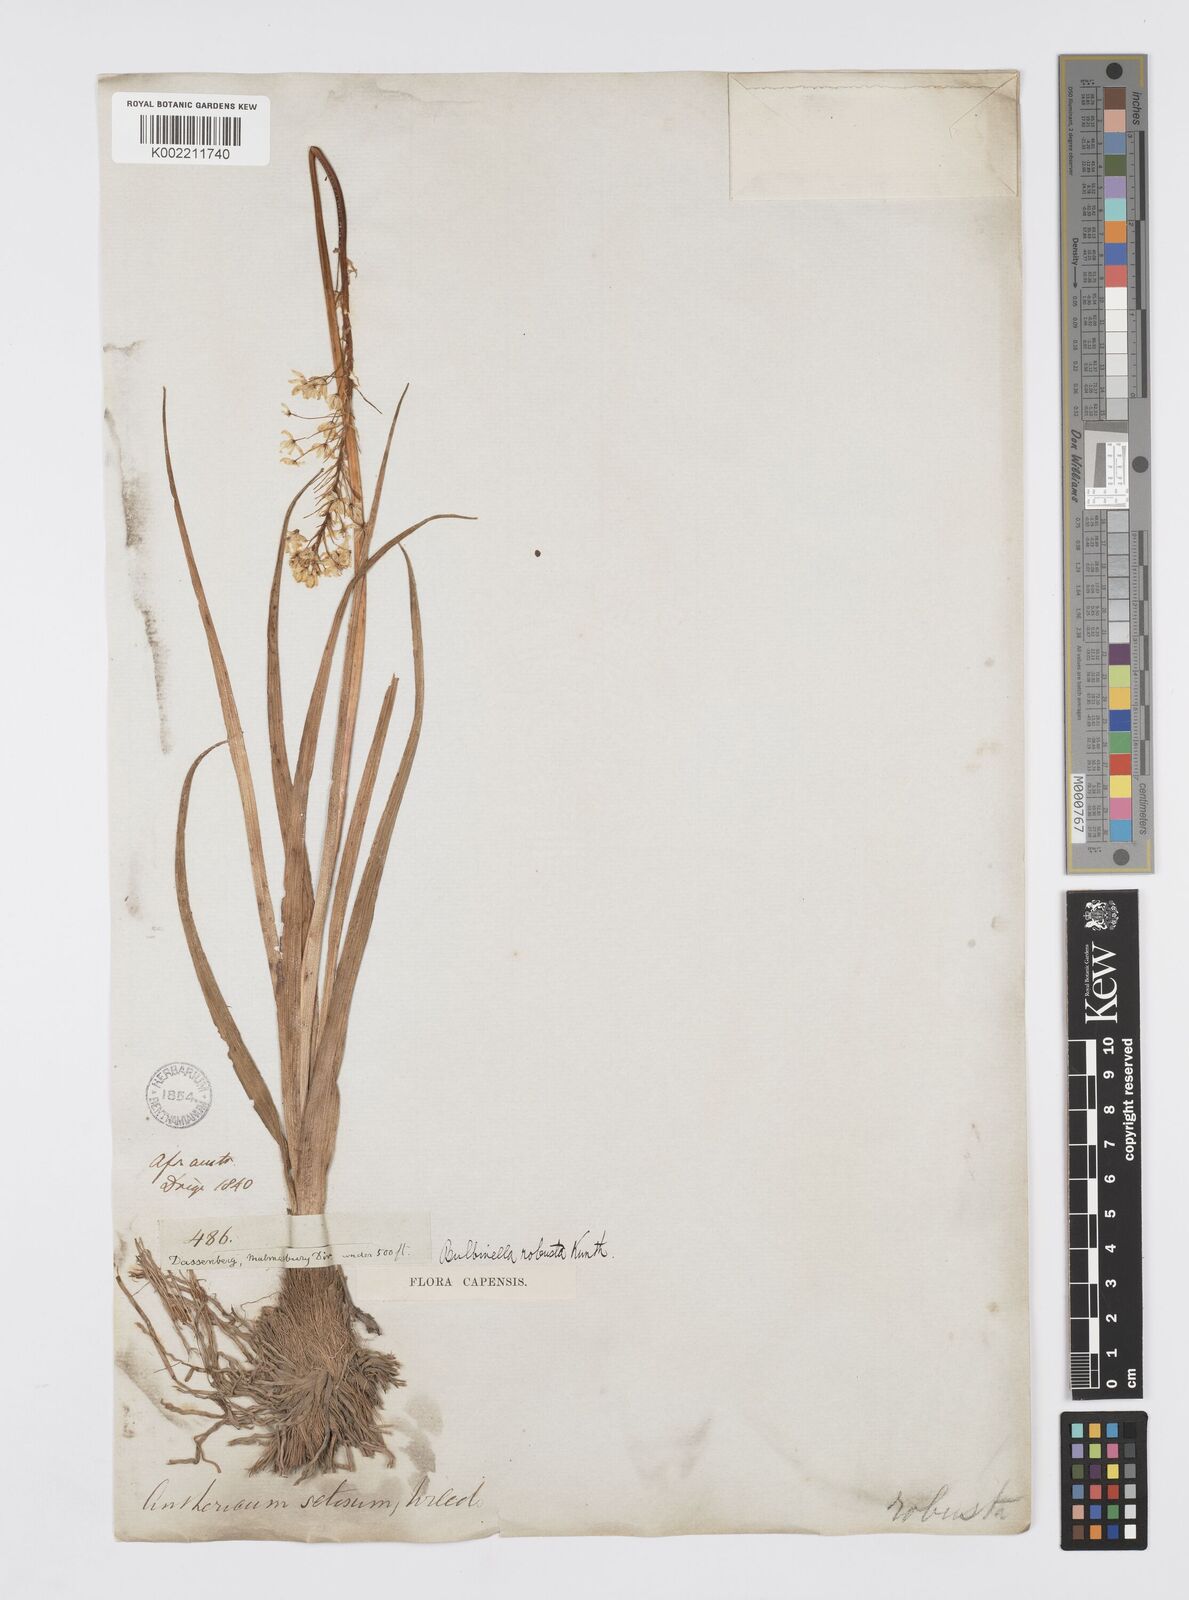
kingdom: Plantae
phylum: Tracheophyta
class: Liliopsida
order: Asparagales
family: Asphodelaceae
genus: Bulbinella
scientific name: Bulbinella nutans
